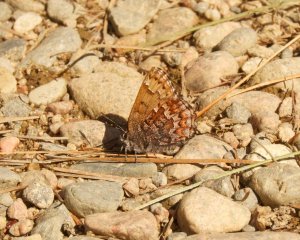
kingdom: Animalia
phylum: Arthropoda
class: Insecta
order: Lepidoptera
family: Lycaenidae
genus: Incisalia
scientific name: Incisalia niphon
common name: Eastern Pine Elfin
